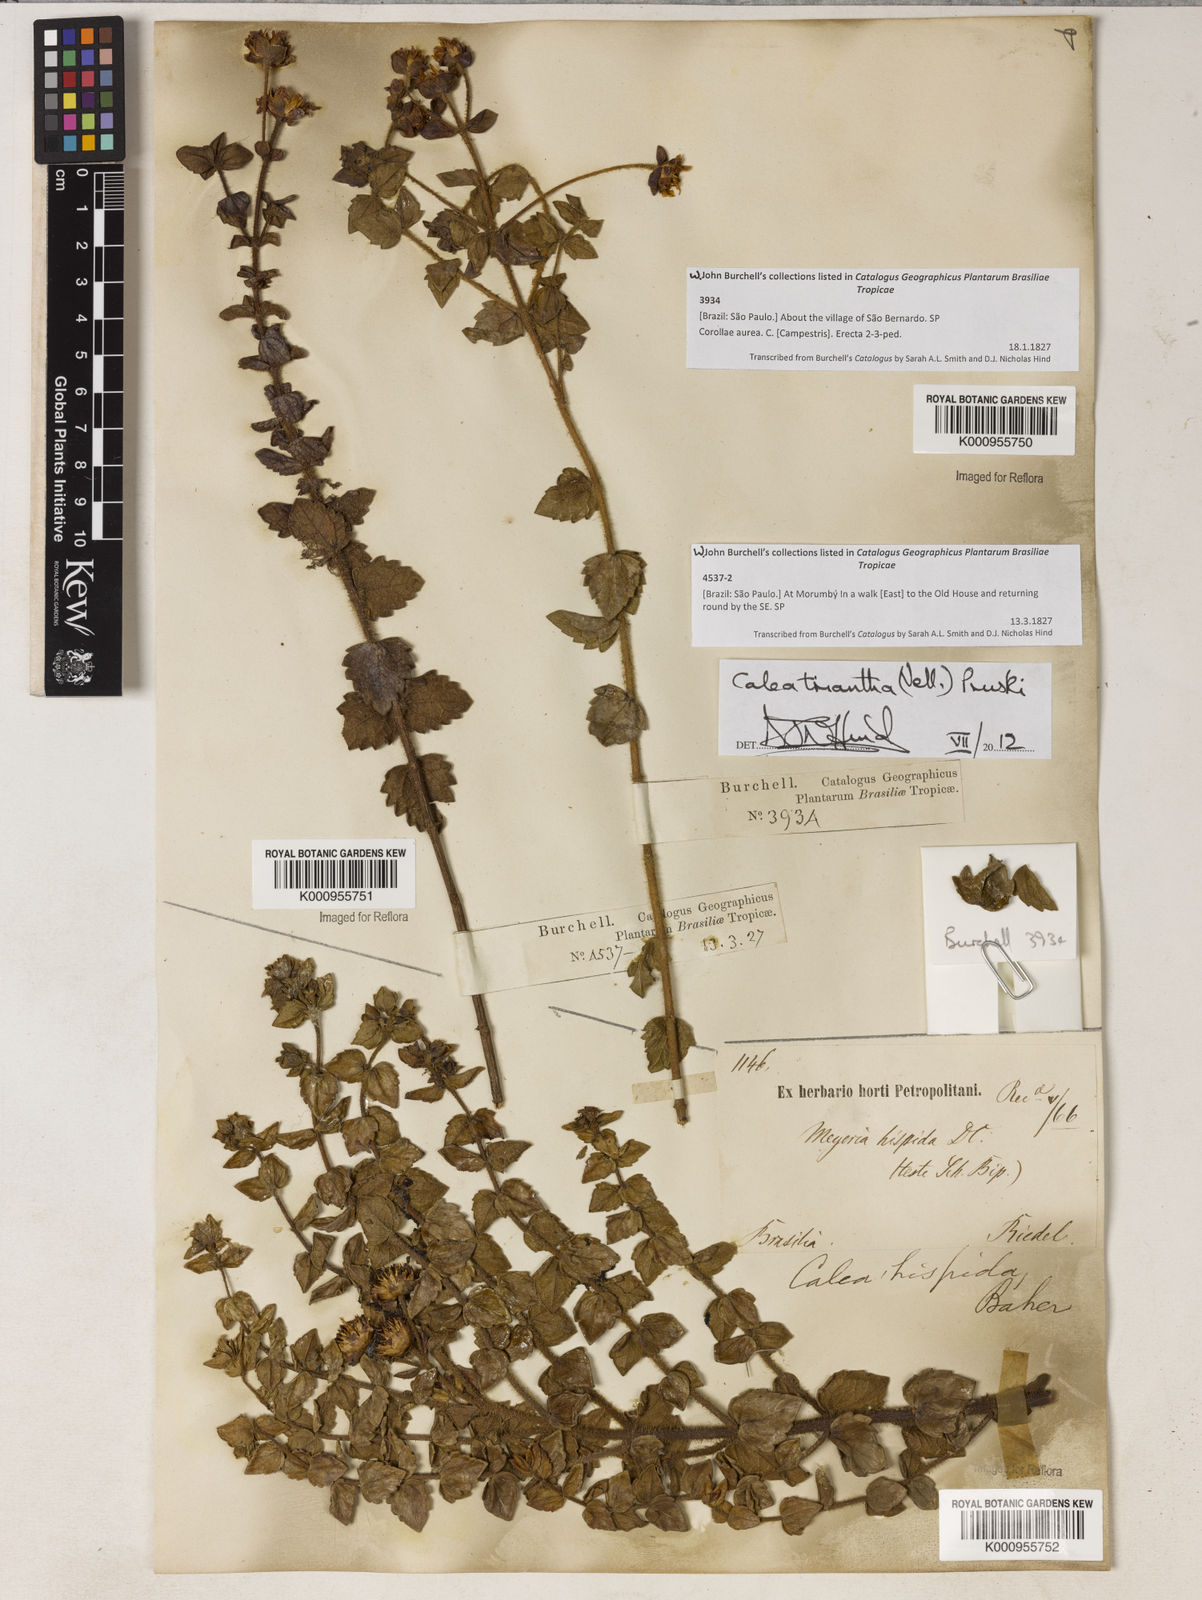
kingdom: Plantae
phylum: Tracheophyta
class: Magnoliopsida
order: Asterales
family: Asteraceae
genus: Calea
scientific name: Calea triantha
